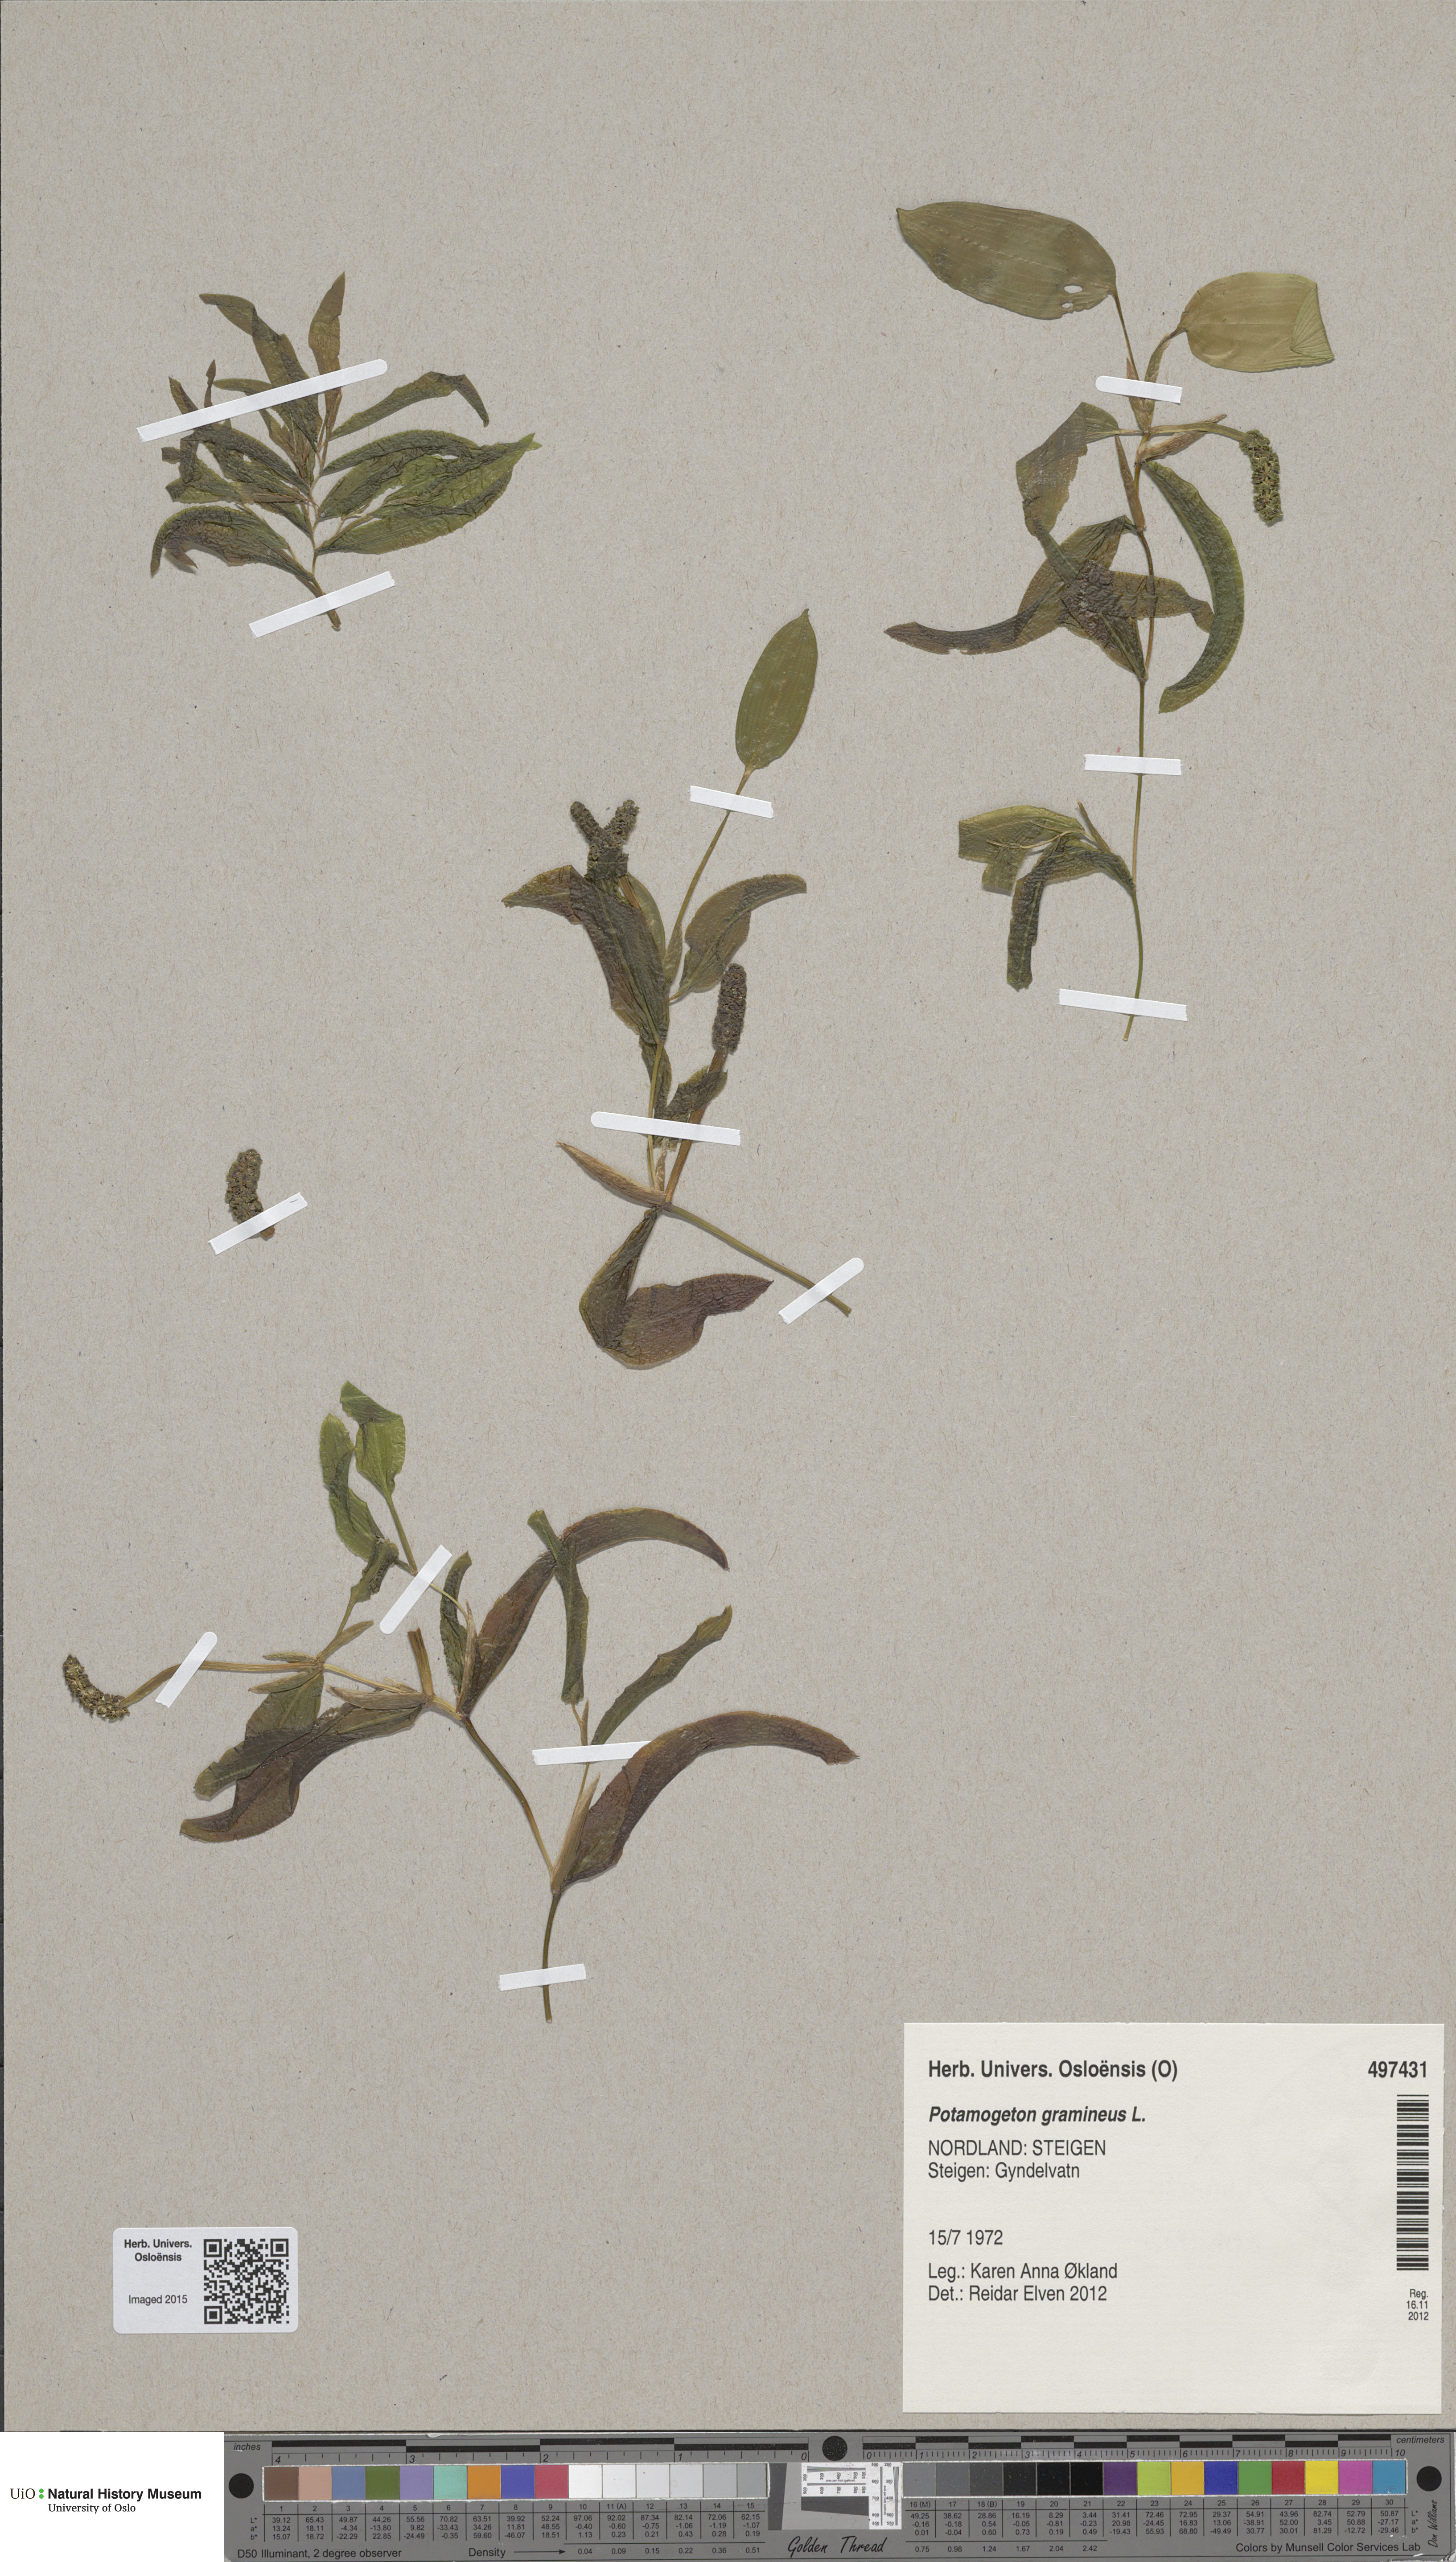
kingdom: Plantae
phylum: Tracheophyta
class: Liliopsida
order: Alismatales
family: Potamogetonaceae
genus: Potamogeton
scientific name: Potamogeton gramineus
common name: Various-leaved pondweed
